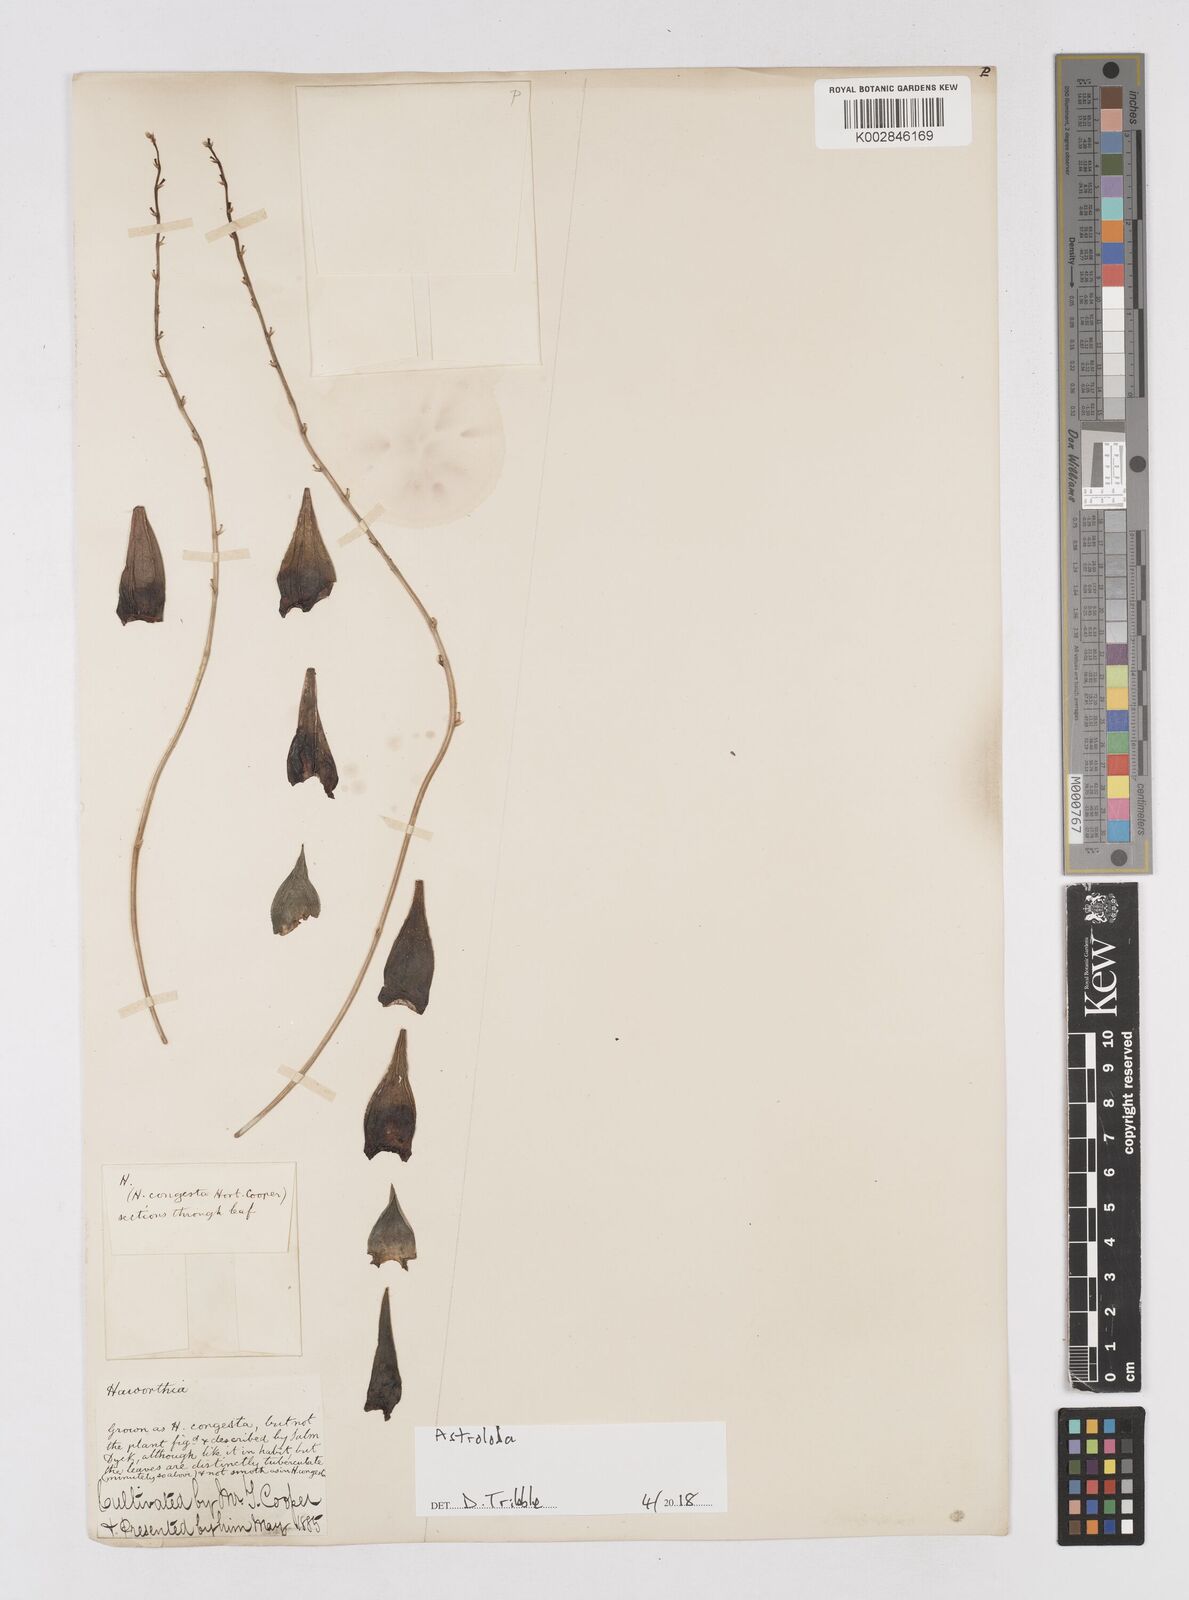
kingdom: Plantae
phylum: Tracheophyta
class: Liliopsida
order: Asparagales
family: Asphodelaceae
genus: Astroloba
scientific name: Astroloba
